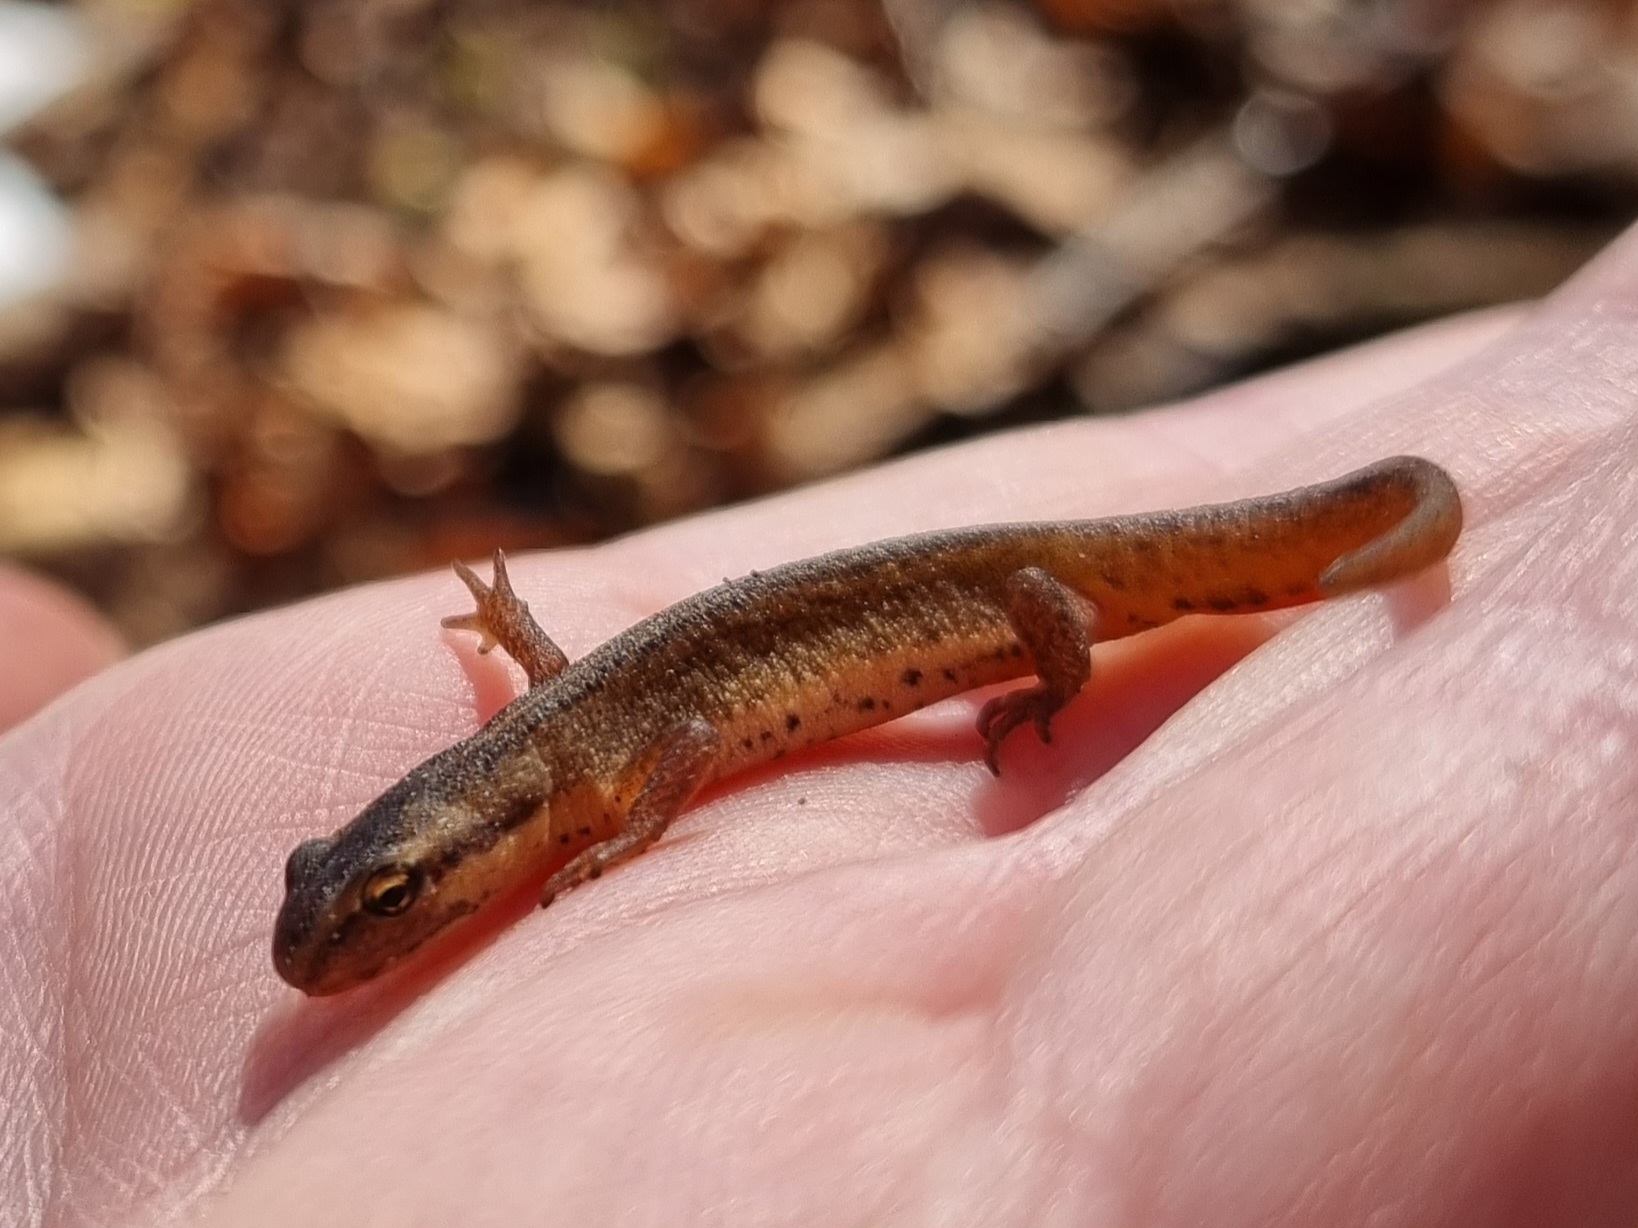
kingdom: Animalia
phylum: Chordata
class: Amphibia
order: Caudata
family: Salamandridae
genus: Lissotriton
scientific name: Lissotriton vulgaris
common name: Lille vandsalamander
